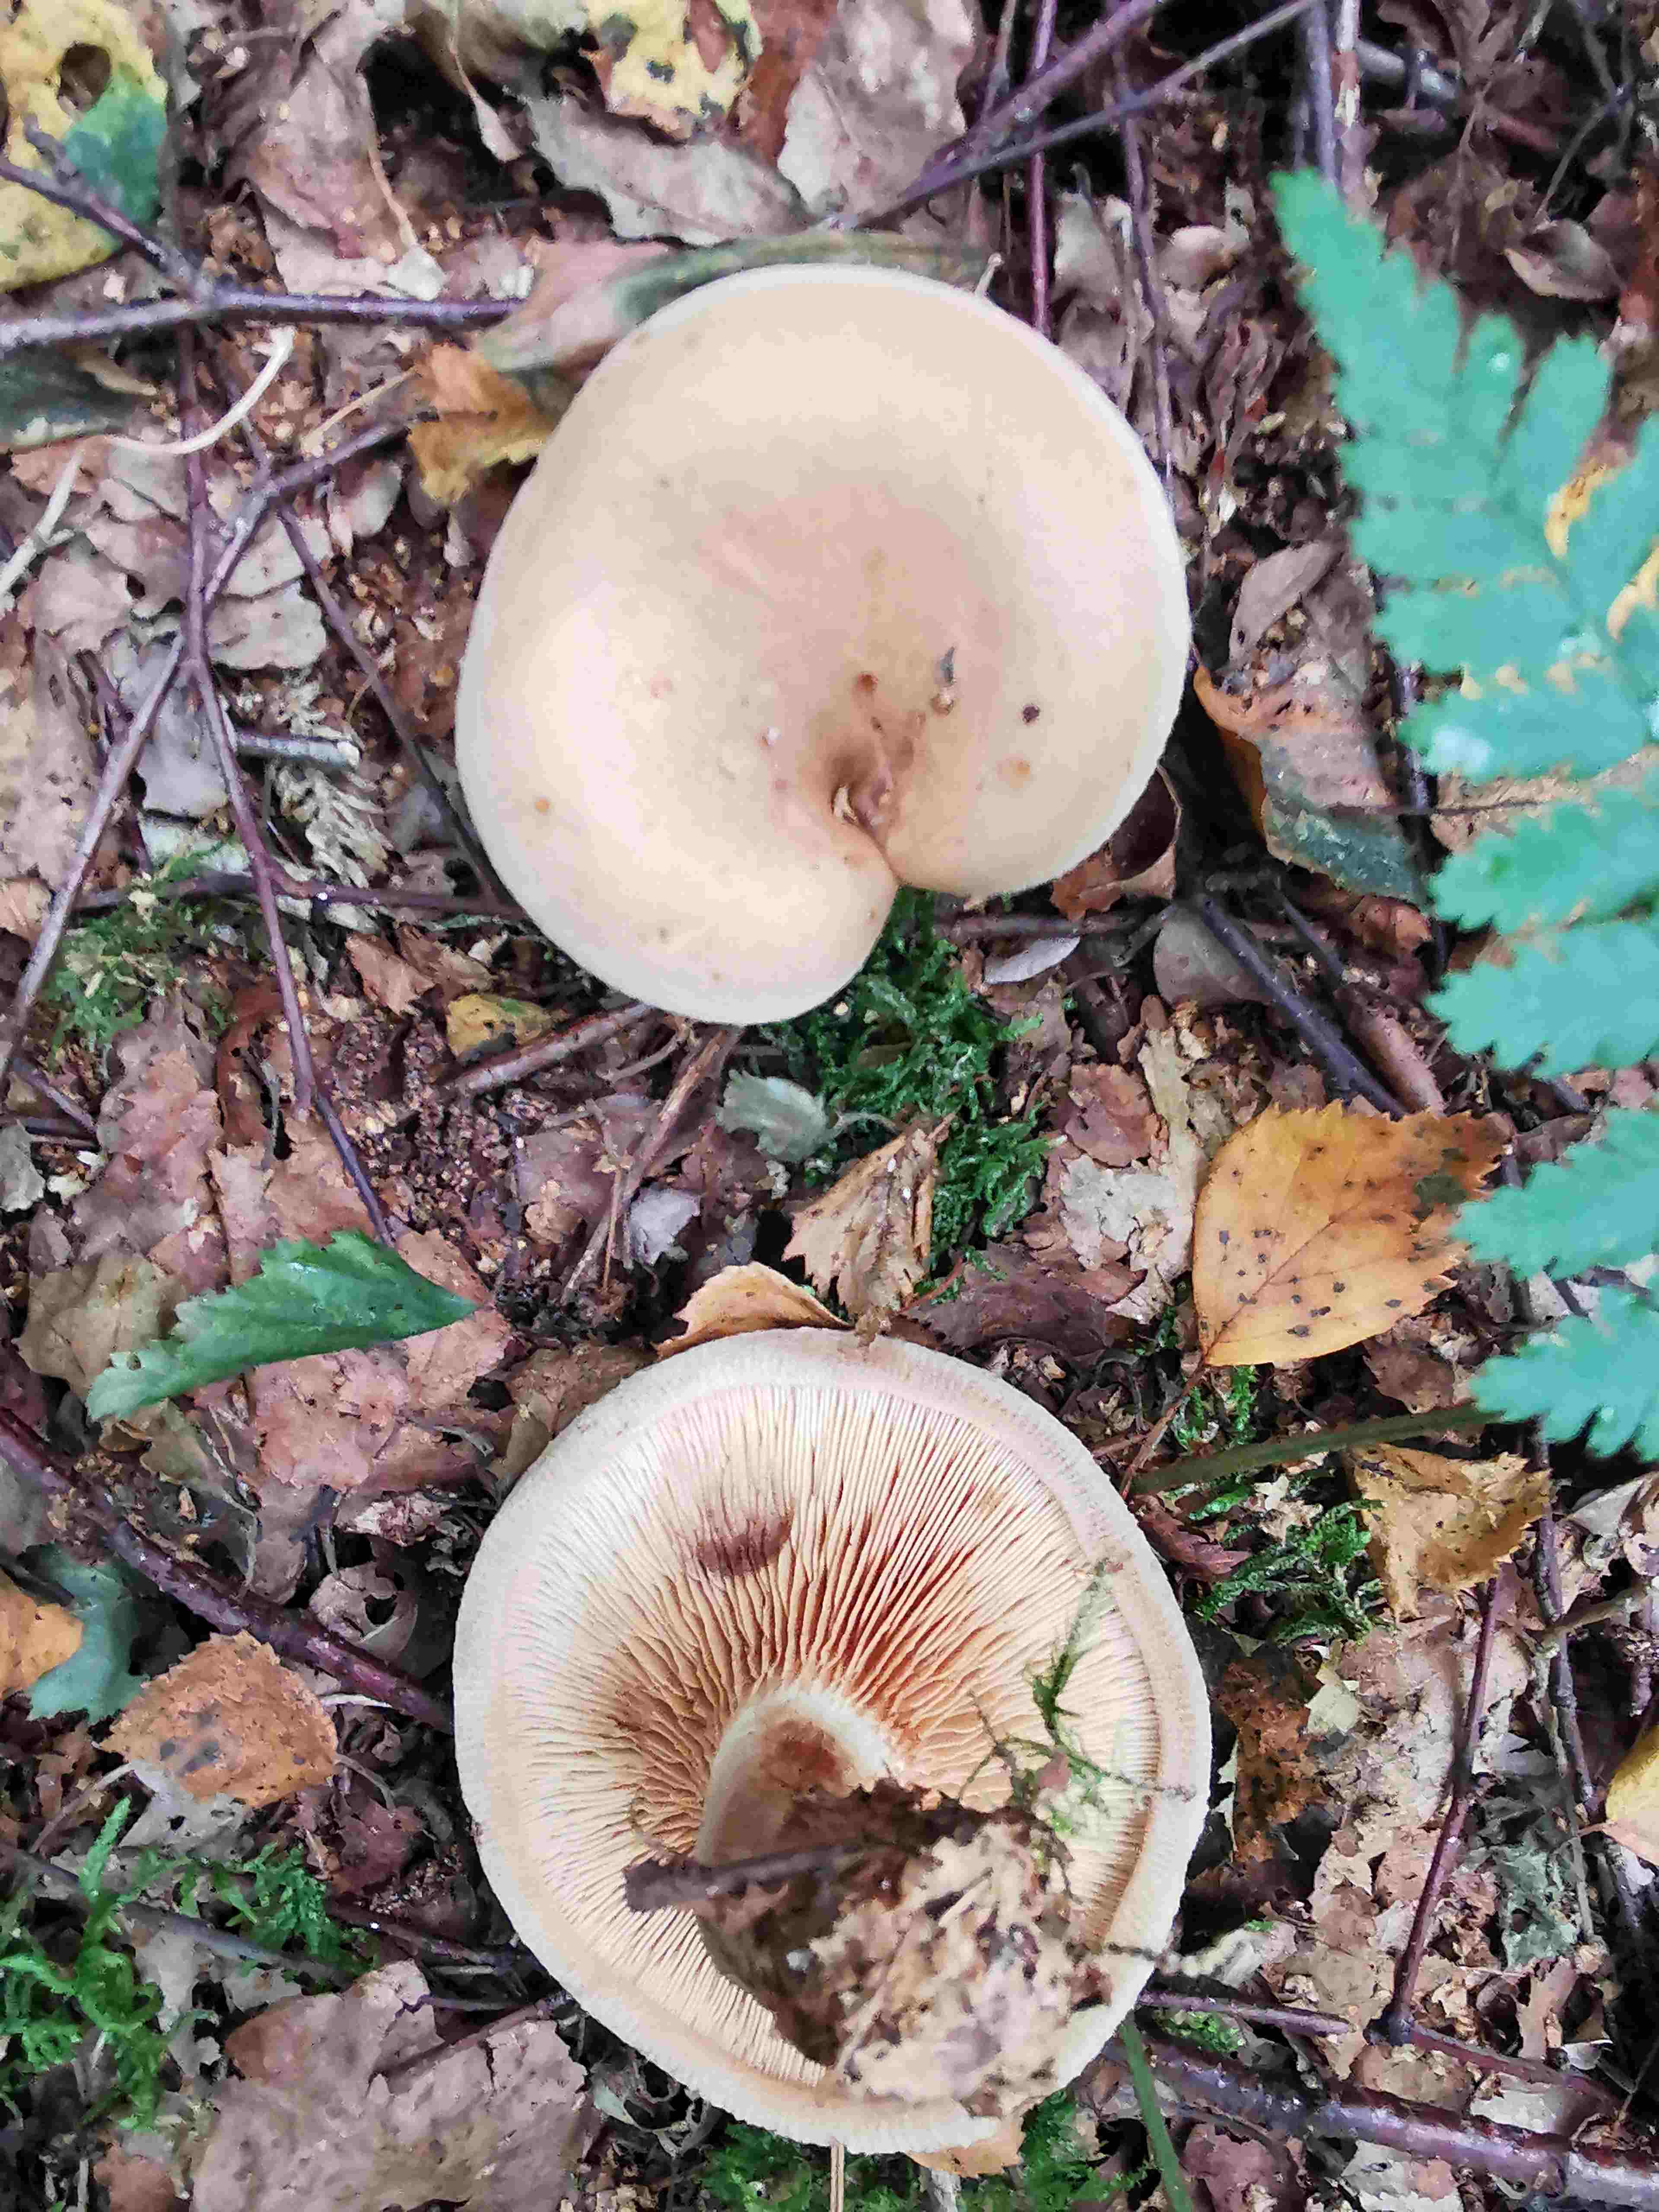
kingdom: Fungi
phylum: Basidiomycota
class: Agaricomycetes
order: Boletales
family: Paxillaceae
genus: Paxillus
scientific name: Paxillus involutus
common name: almindelig netbladhat
